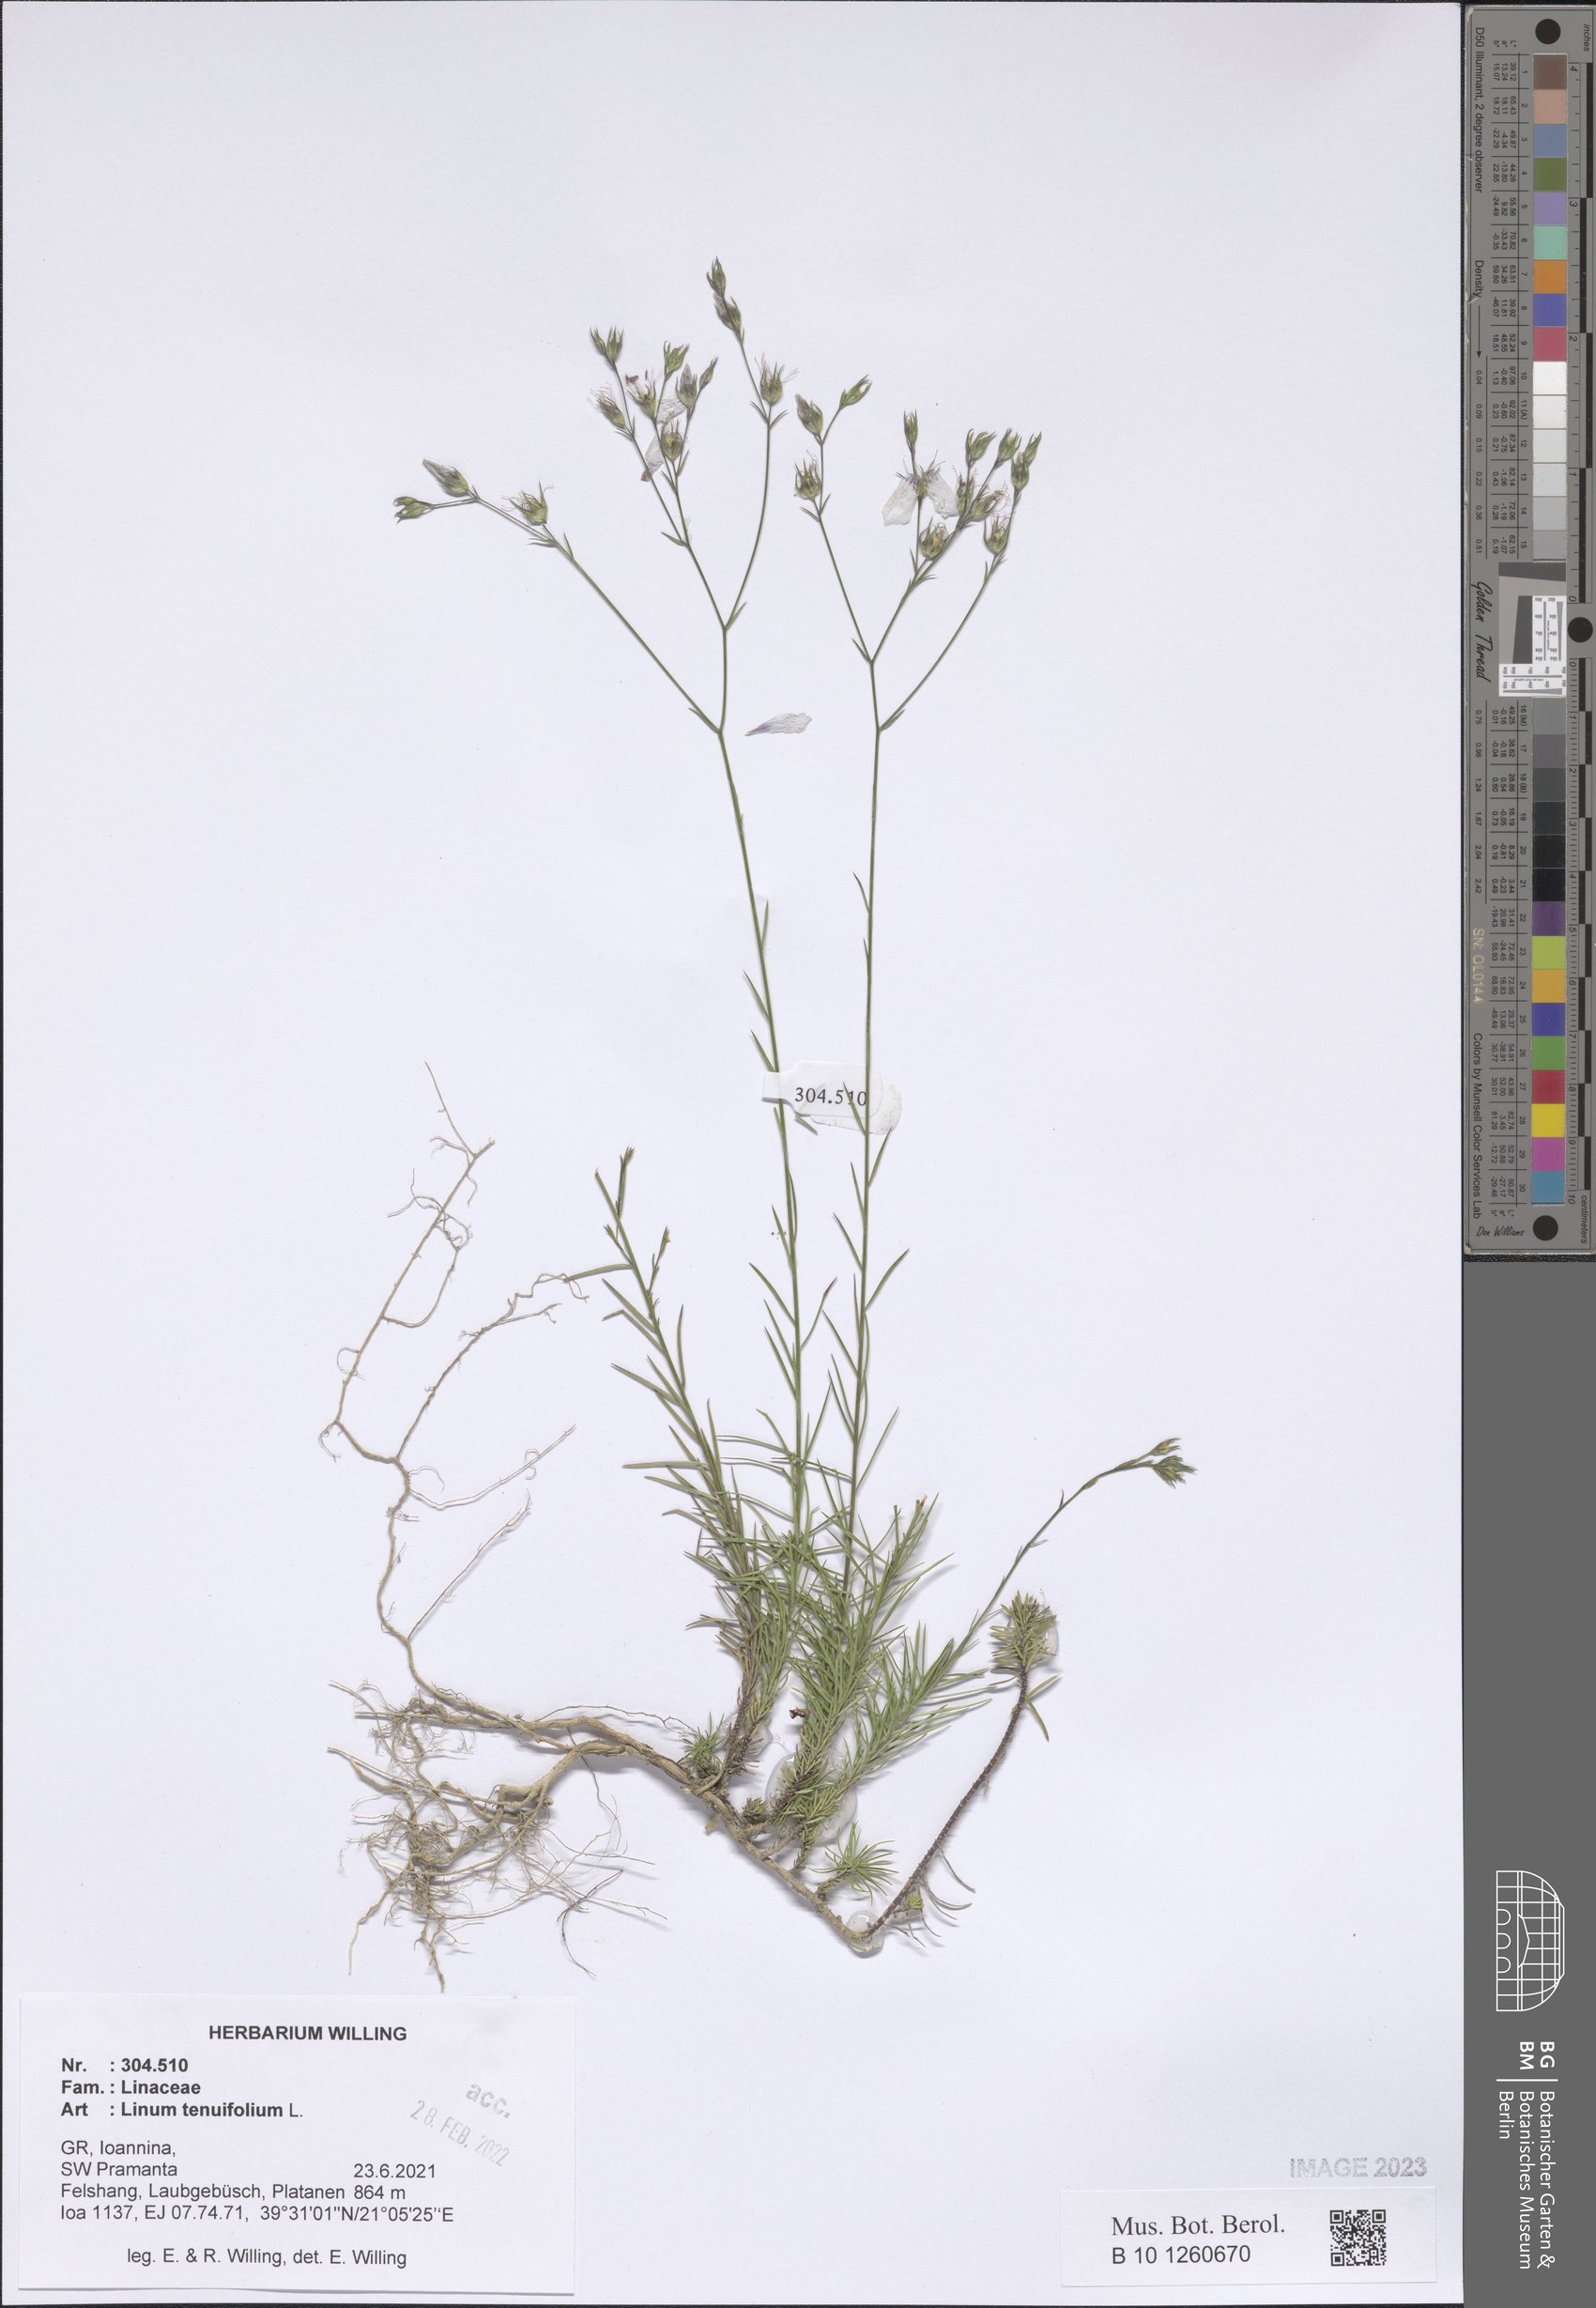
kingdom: Plantae
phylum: Tracheophyta
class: Magnoliopsida
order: Malpighiales
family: Linaceae
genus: Linum
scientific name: Linum tenuifolium
